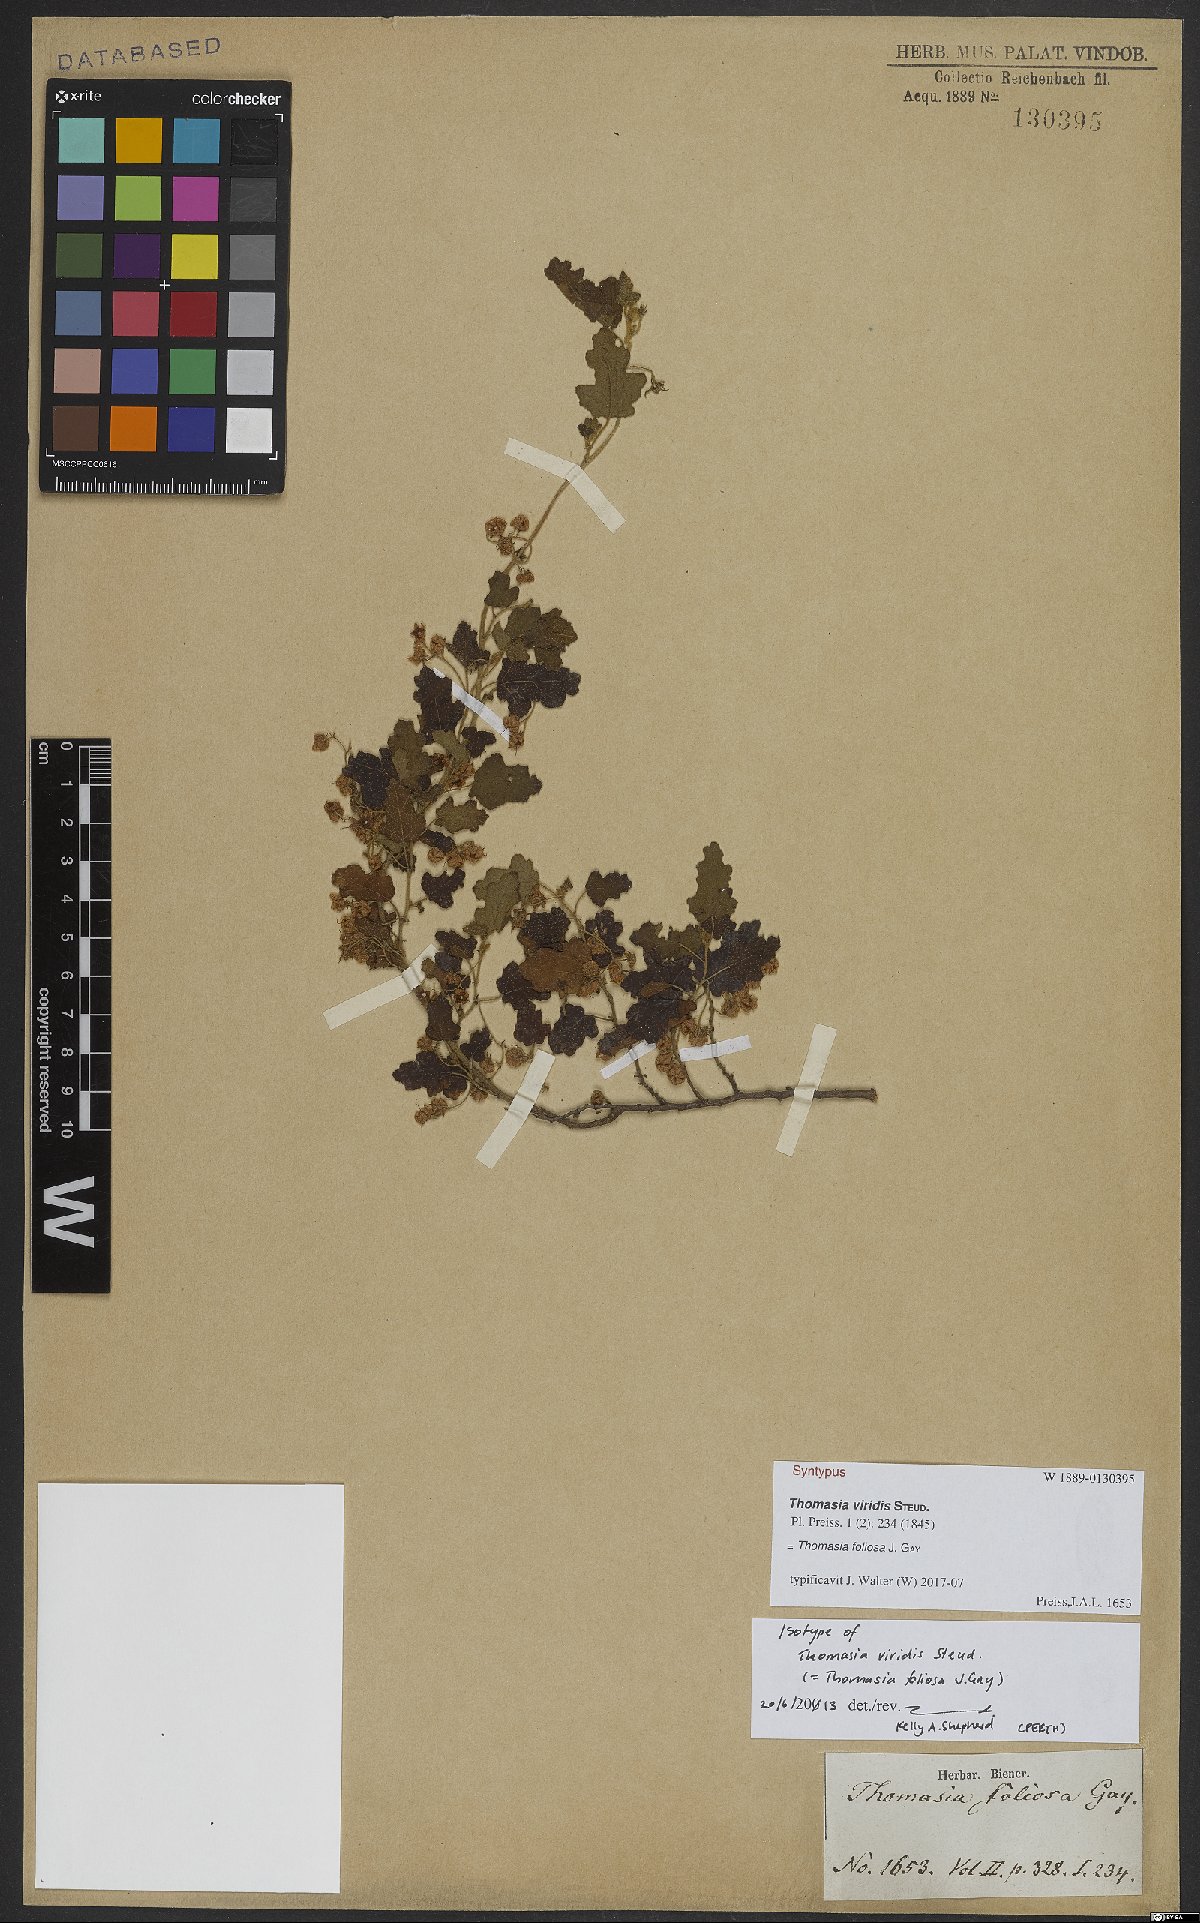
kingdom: Plantae
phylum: Tracheophyta
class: Magnoliopsida
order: Malvales
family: Malvaceae
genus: Thomasia
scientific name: Thomasia foliosa
